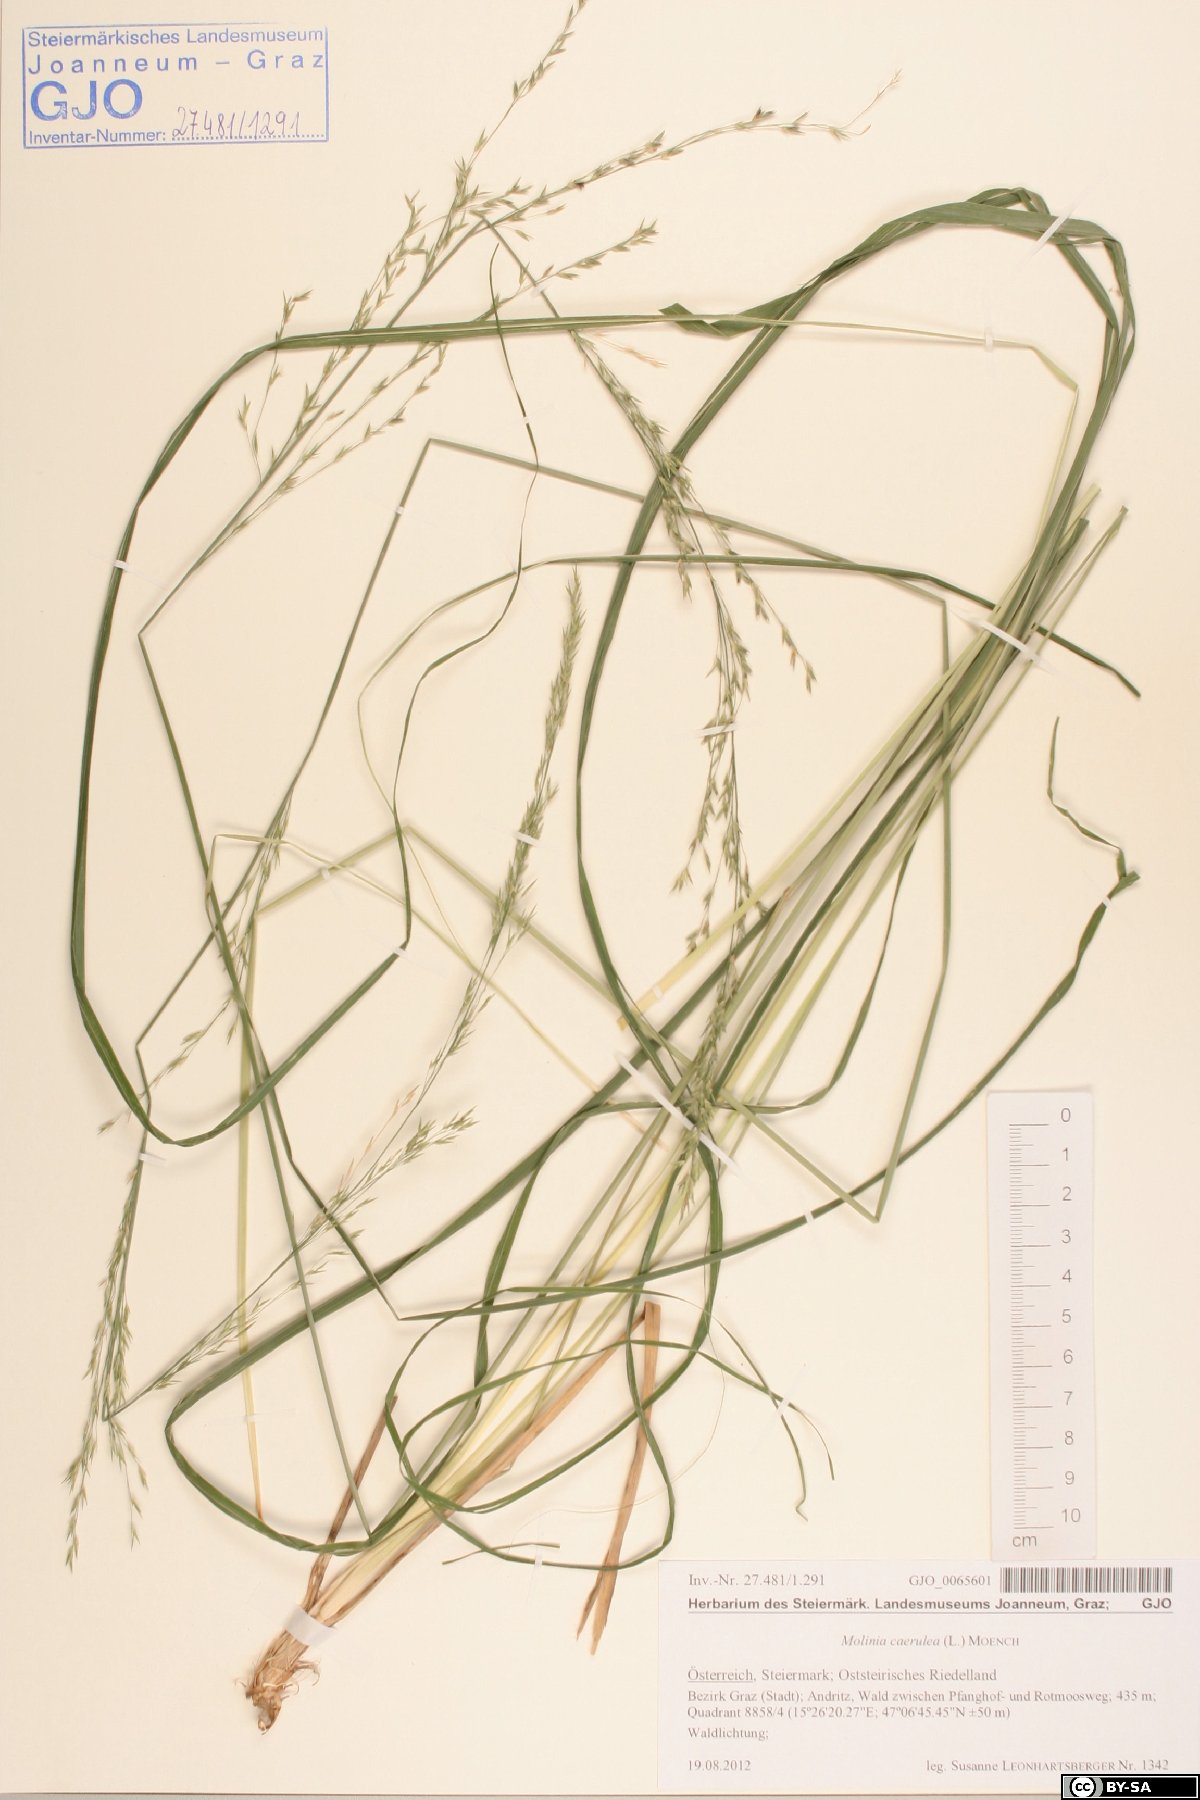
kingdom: Plantae
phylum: Tracheophyta
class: Liliopsida
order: Poales
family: Poaceae
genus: Molinia
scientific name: Molinia caerulea
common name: Purple moor-grass
